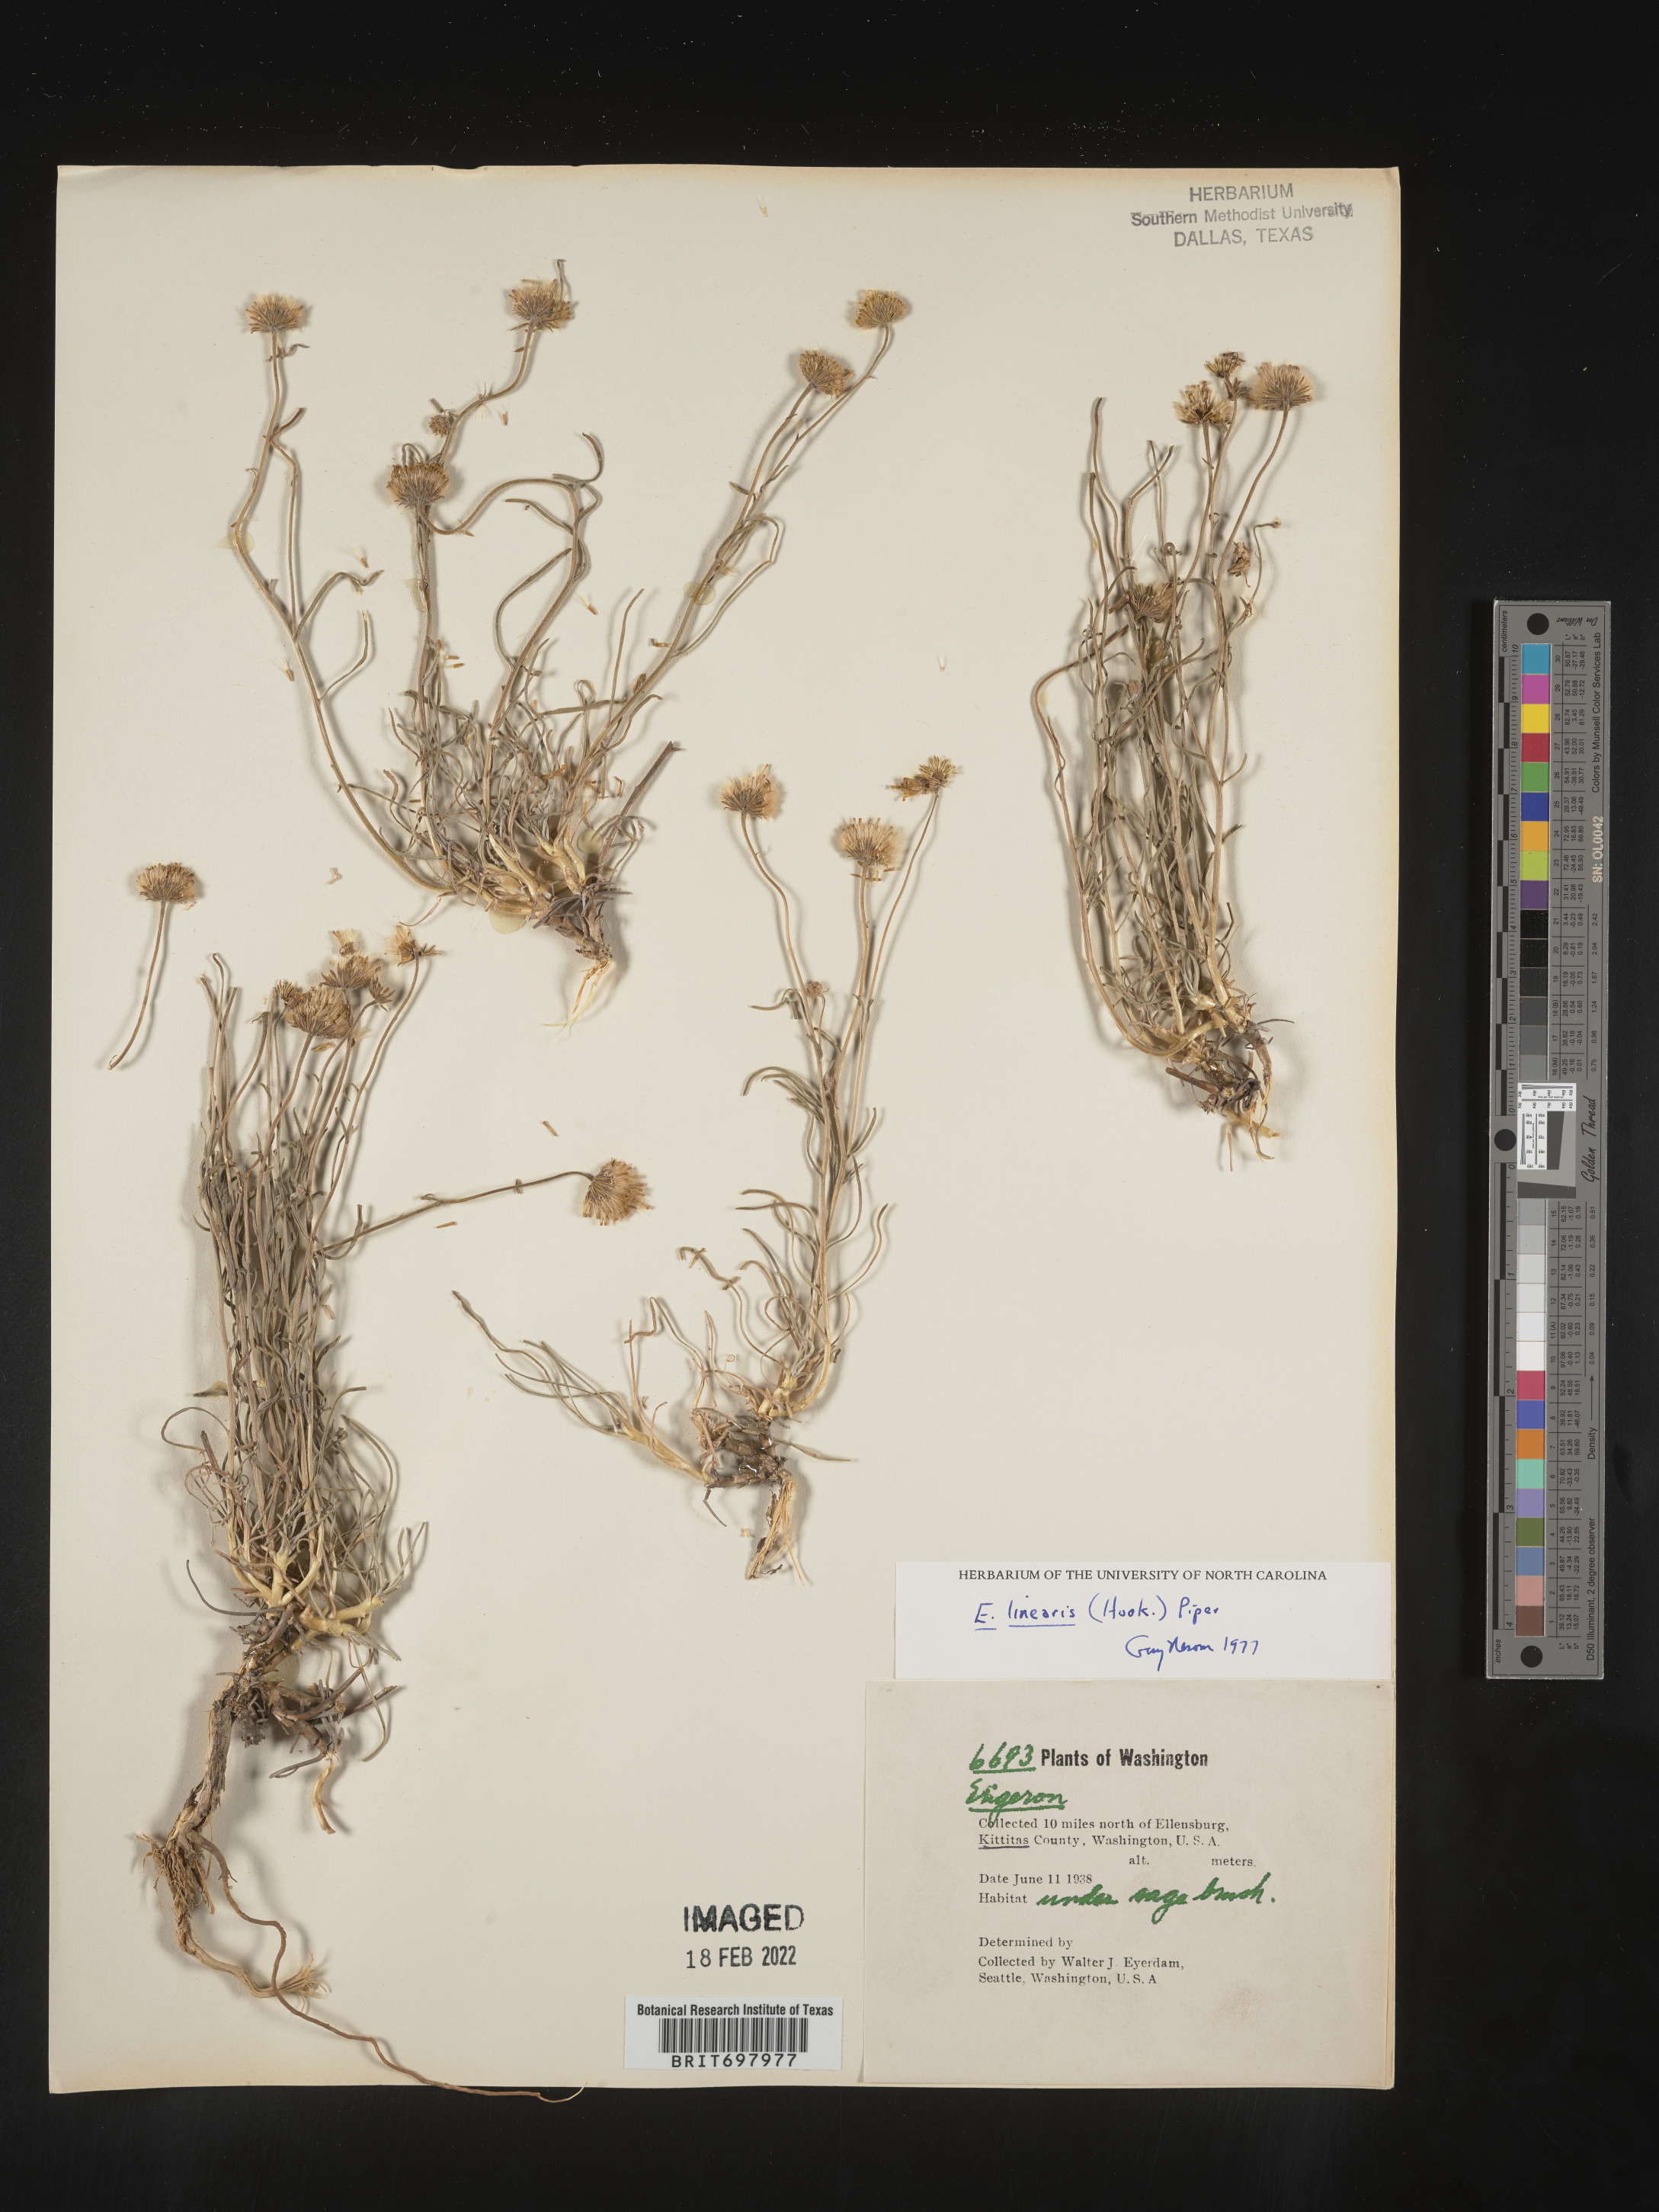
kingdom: Plantae
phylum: Tracheophyta
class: Magnoliopsida
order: Asterales
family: Asteraceae
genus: Erigeron
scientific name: Erigeron linearis
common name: Desert yellow fleabane
